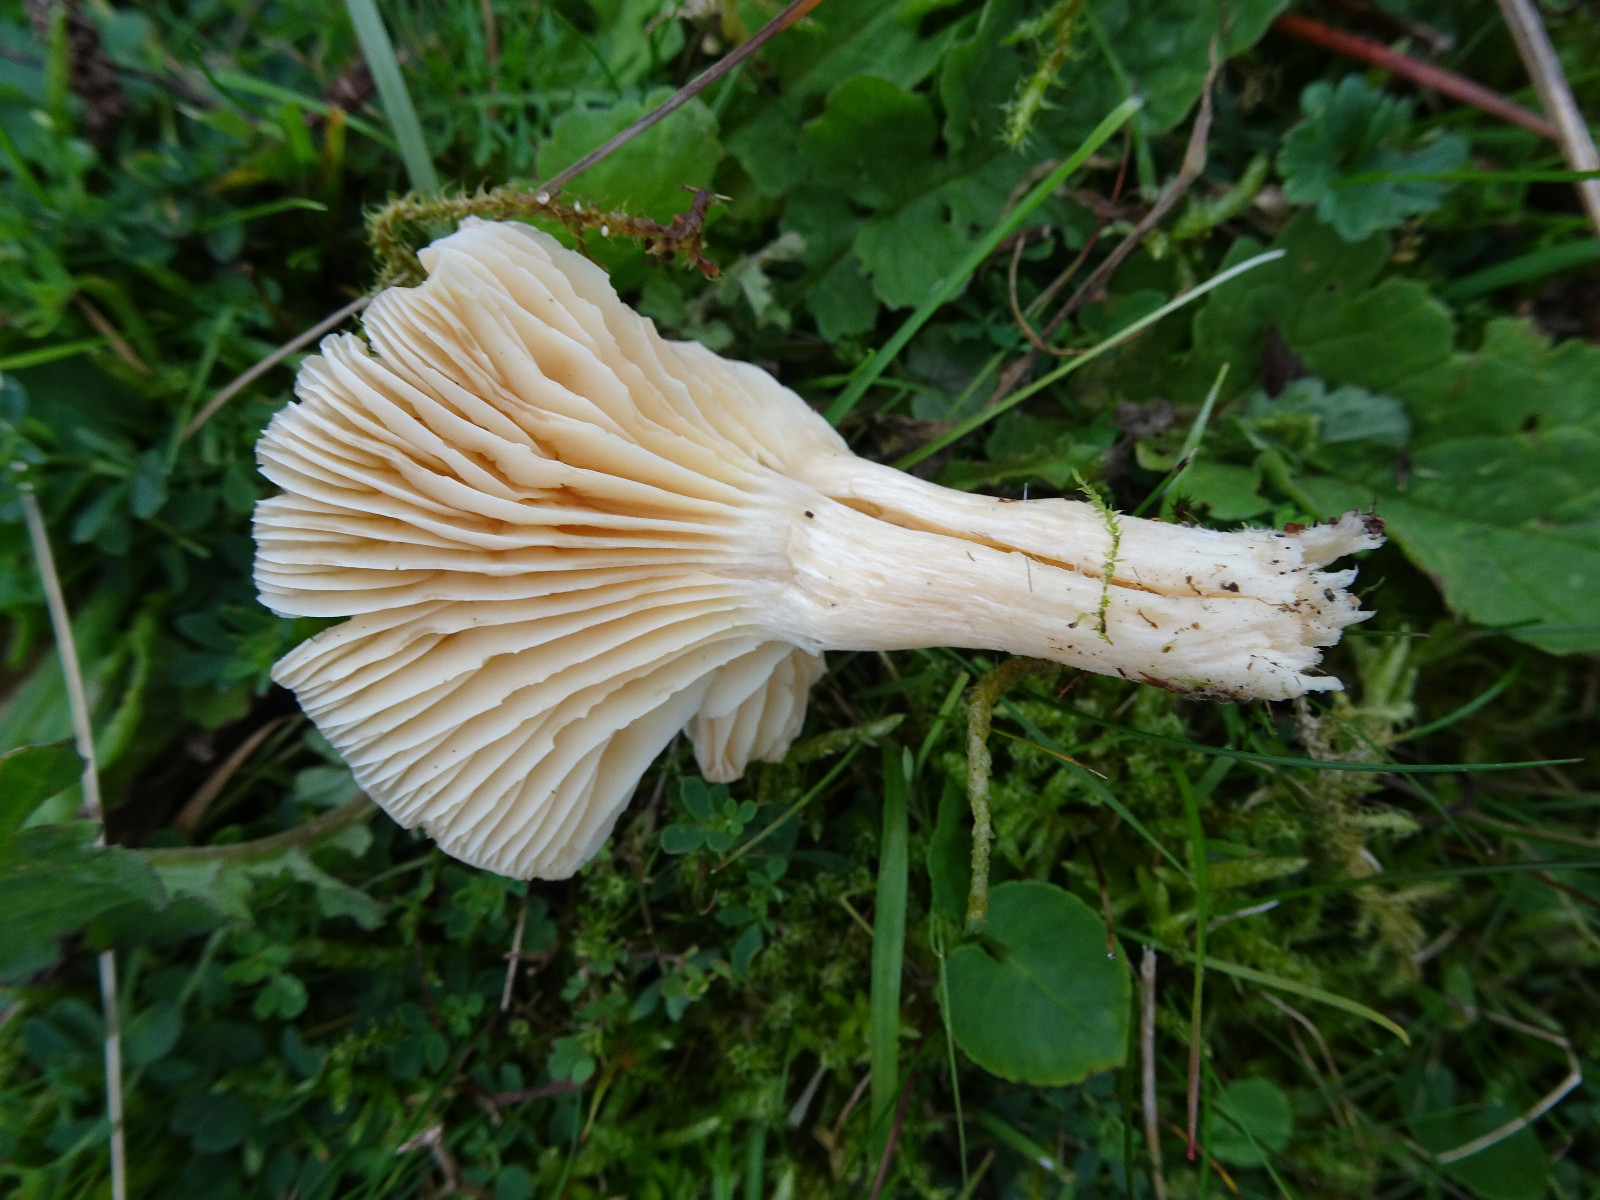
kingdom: Fungi
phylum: Basidiomycota
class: Agaricomycetes
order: Agaricales
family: Hygrophoraceae
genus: Cuphophyllus
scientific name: Cuphophyllus pratensis
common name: eng-vokshat
